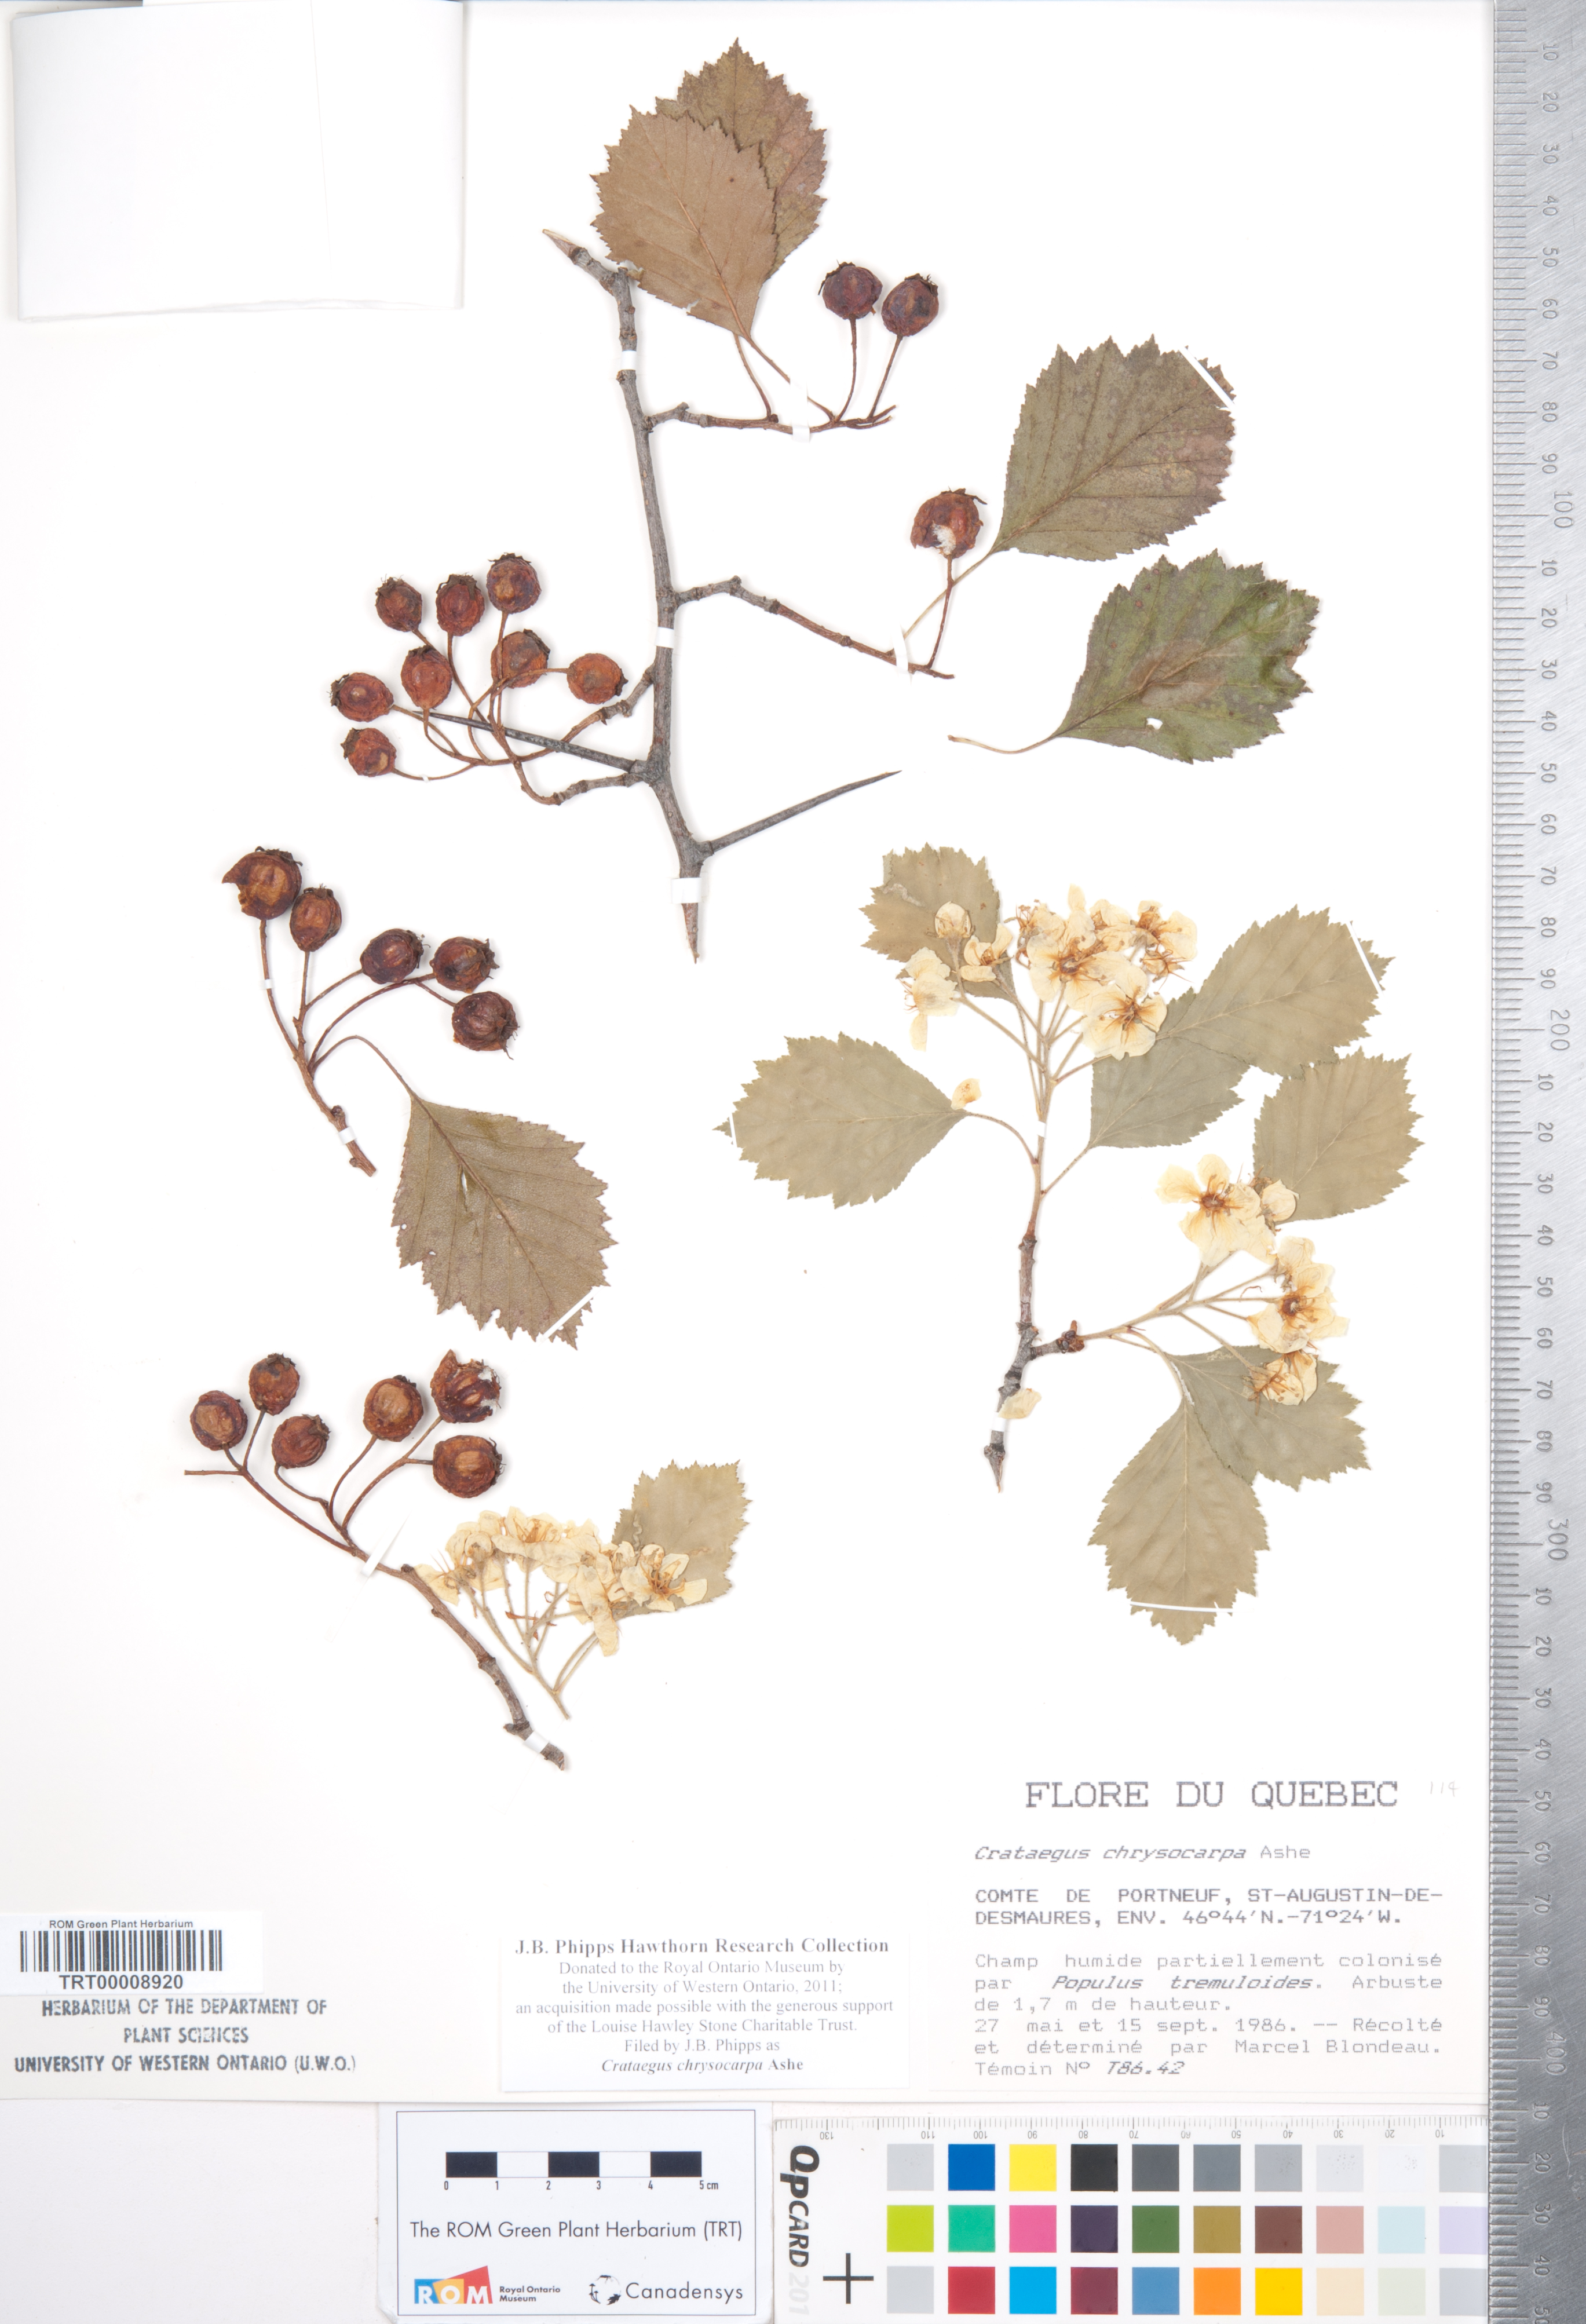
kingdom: Plantae
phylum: Tracheophyta
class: Magnoliopsida
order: Rosales
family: Rosaceae
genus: Crataegus
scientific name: Crataegus chrysocarpa
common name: Fire-berry hawthorn
